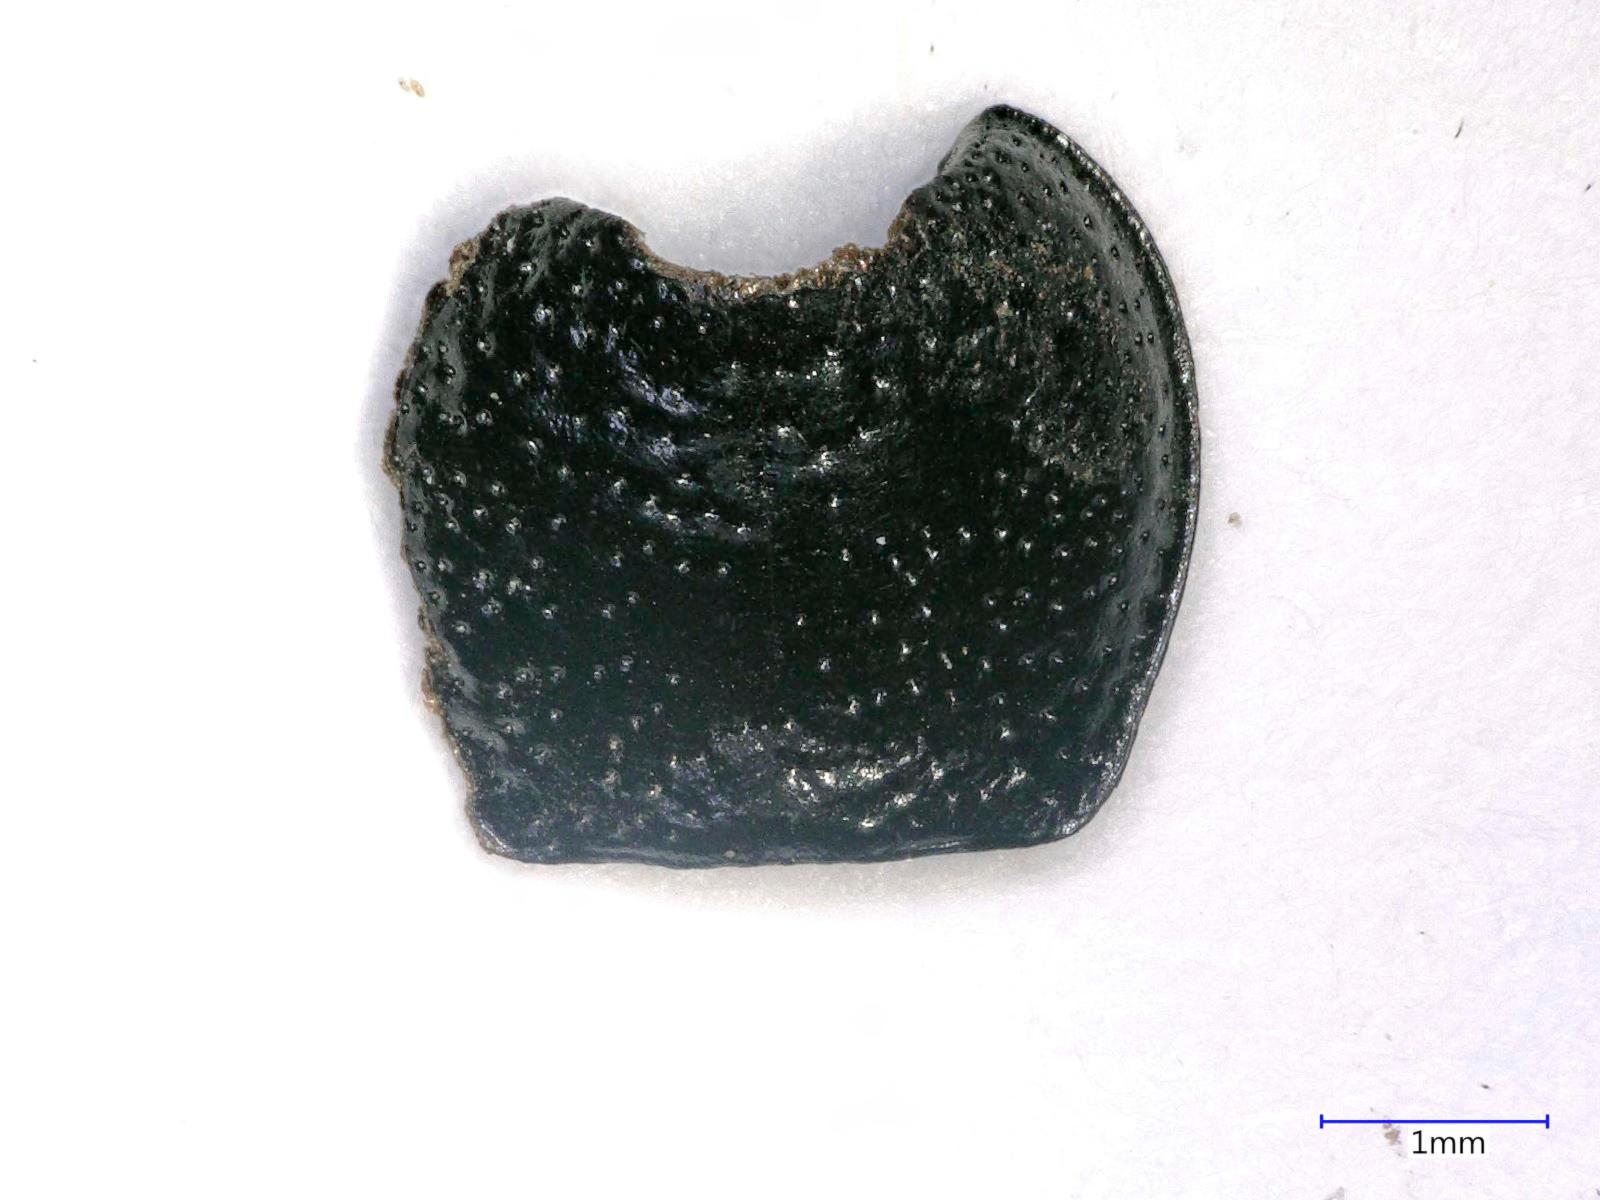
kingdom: Animalia
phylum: Arthropoda
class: Insecta
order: Coleoptera
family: Carabidae
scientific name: Carabidae
